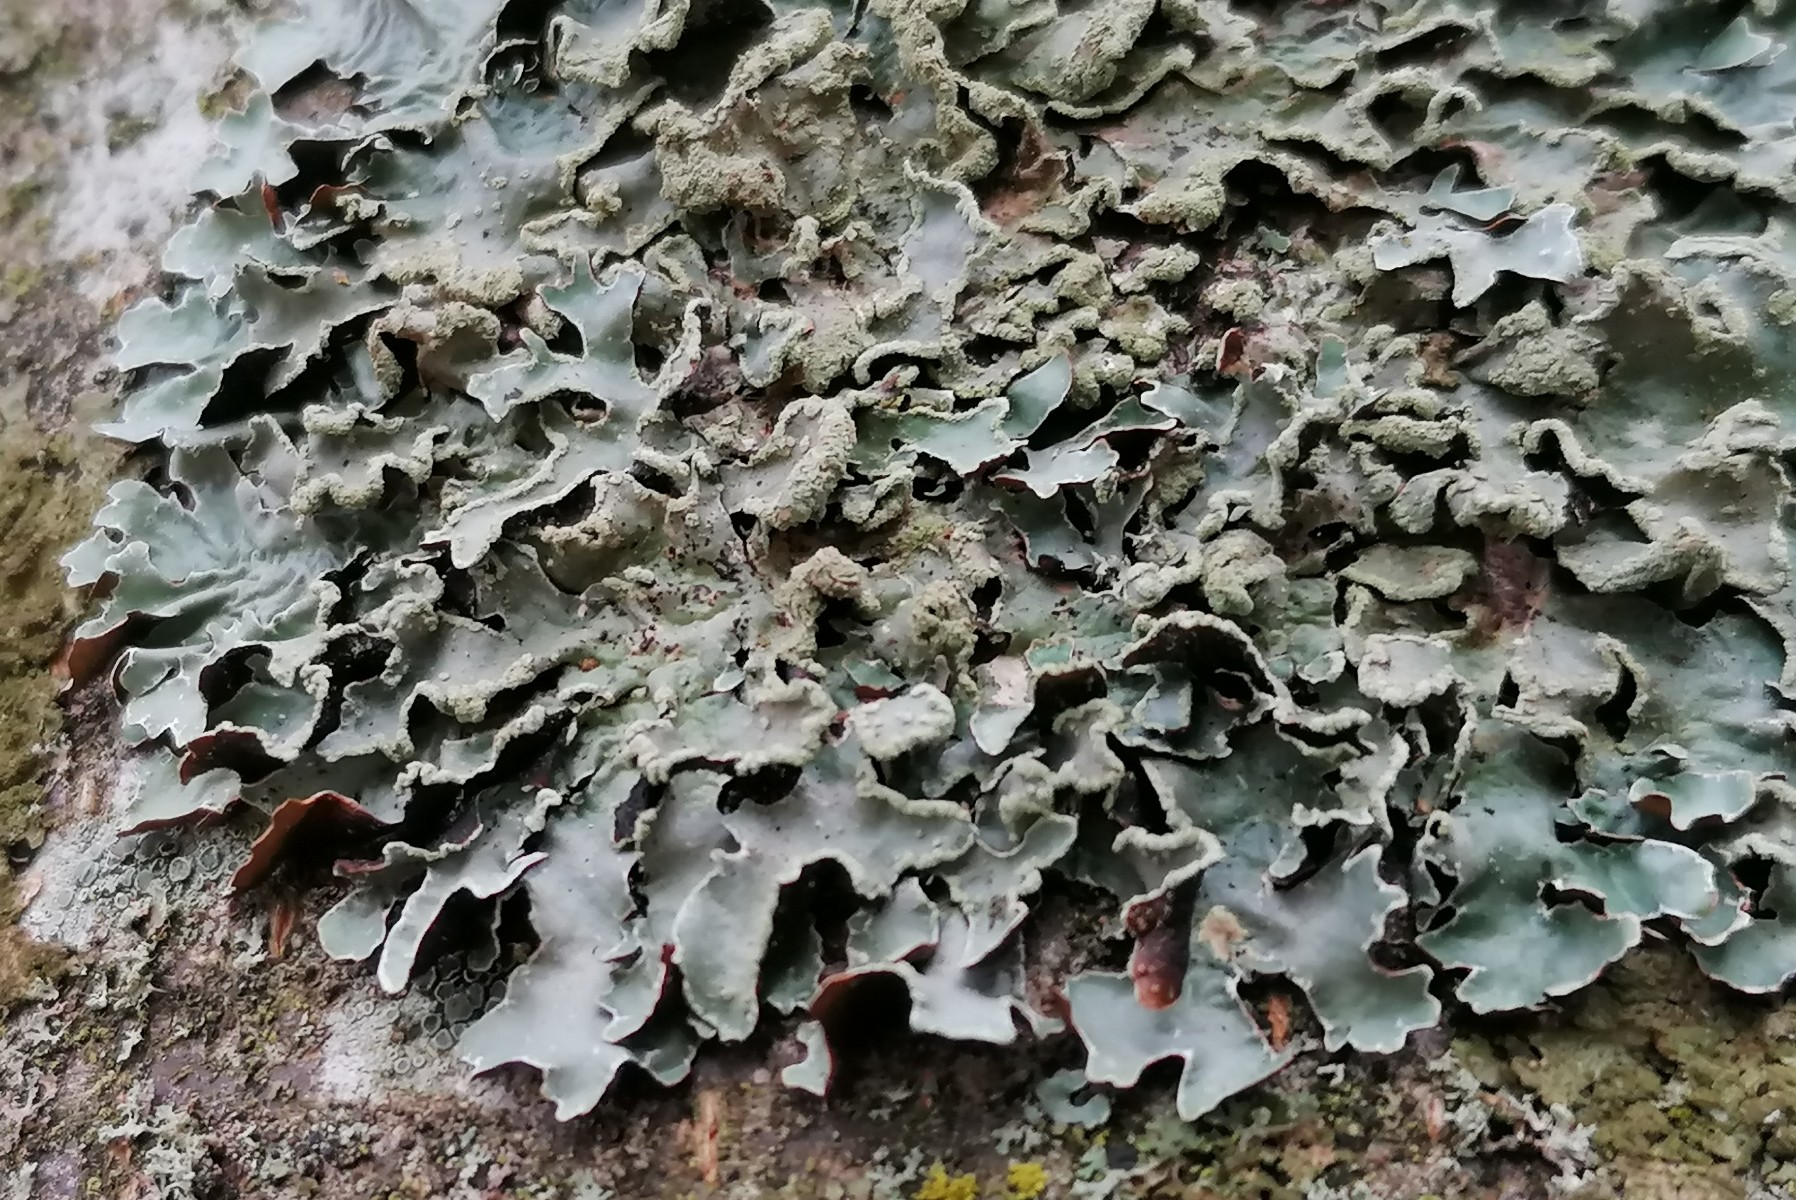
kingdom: Fungi
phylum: Ascomycota
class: Lecanoromycetes
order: Lecanorales
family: Parmeliaceae
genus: Parmelia
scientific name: Parmelia sulcata
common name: rynket skållav
